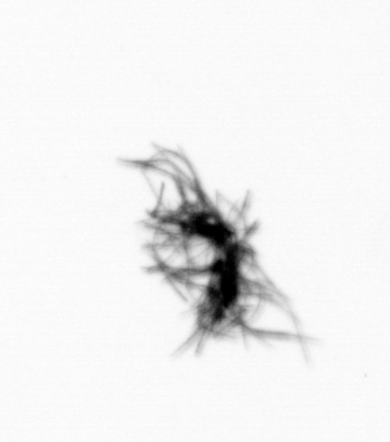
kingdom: Bacteria
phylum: Cyanobacteria
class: Cyanobacteriia
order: Cyanobacteriales
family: Microcoleaceae
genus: Trichodesmium
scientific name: Trichodesmium
